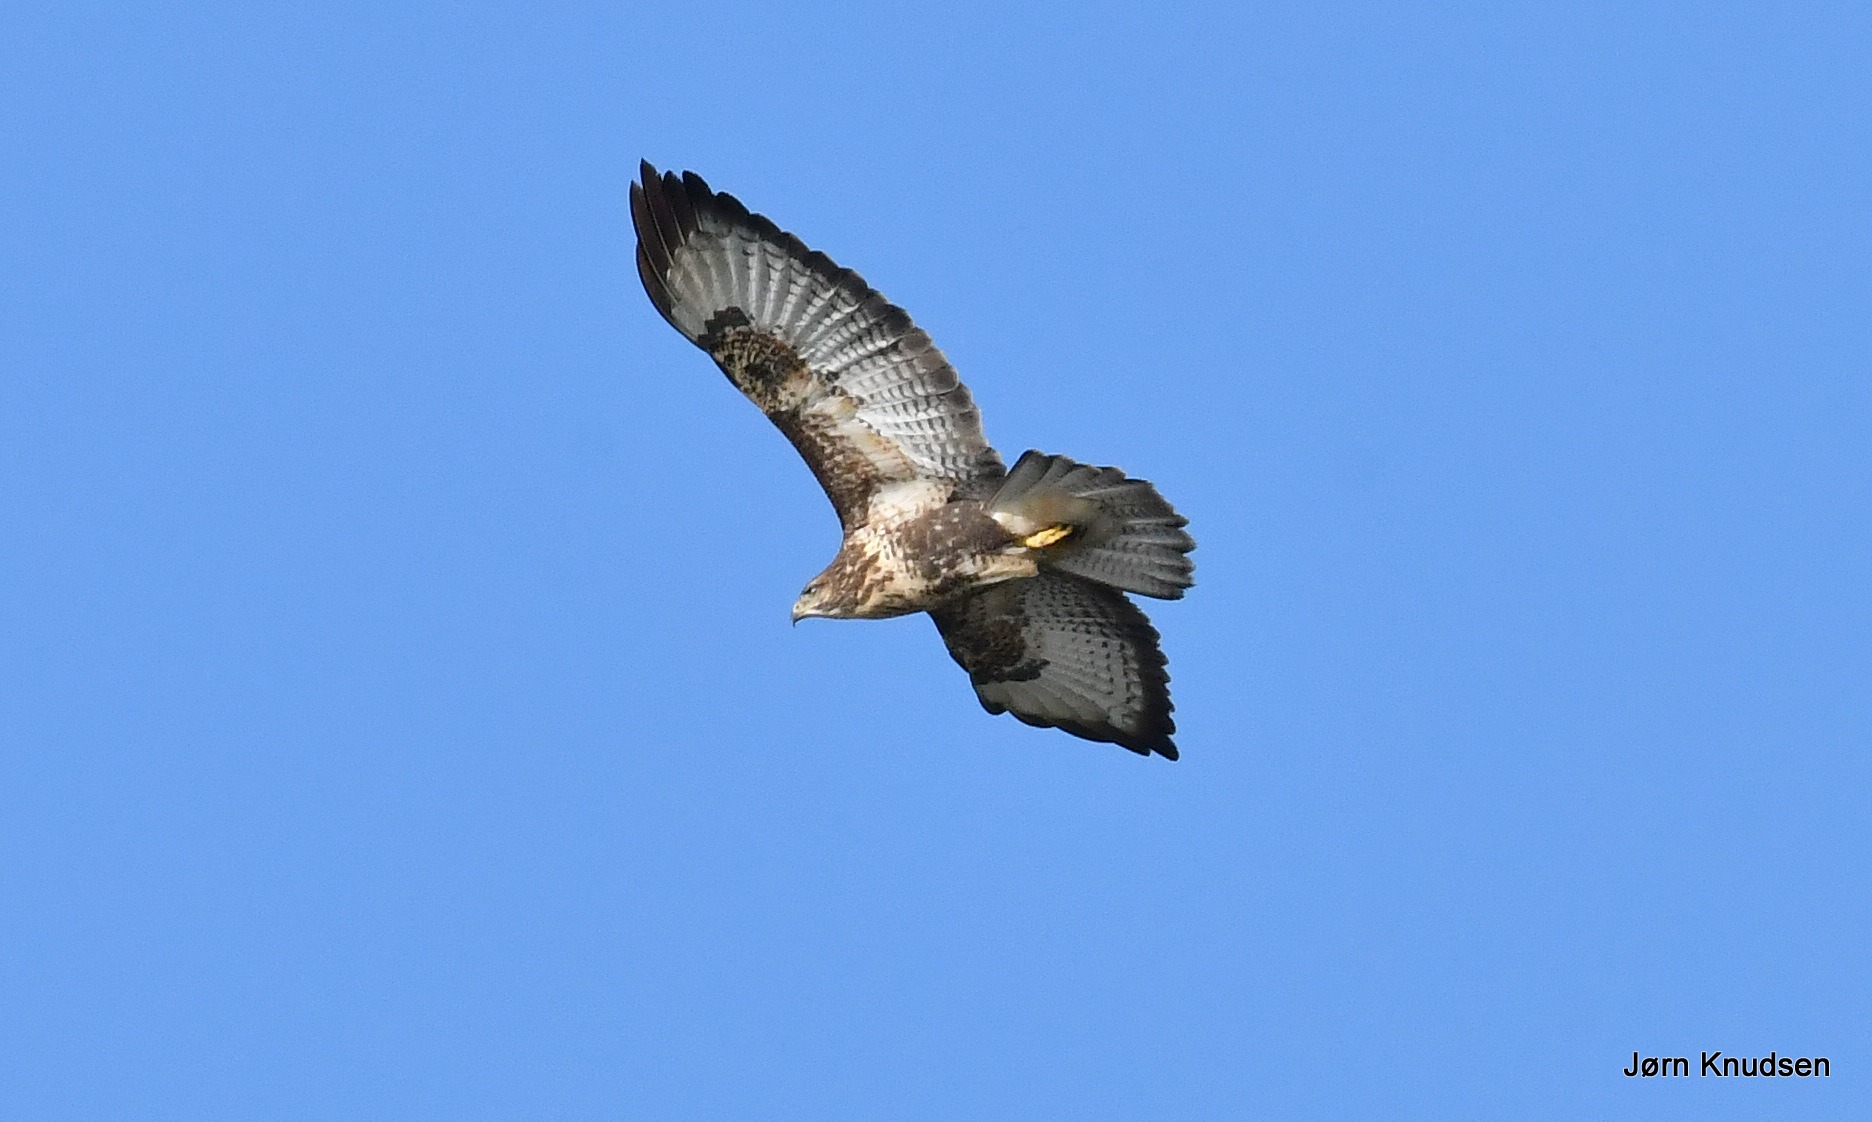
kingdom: Animalia
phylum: Chordata
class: Aves
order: Accipitriformes
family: Accipitridae
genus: Buteo
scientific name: Buteo buteo
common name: Musvåge
